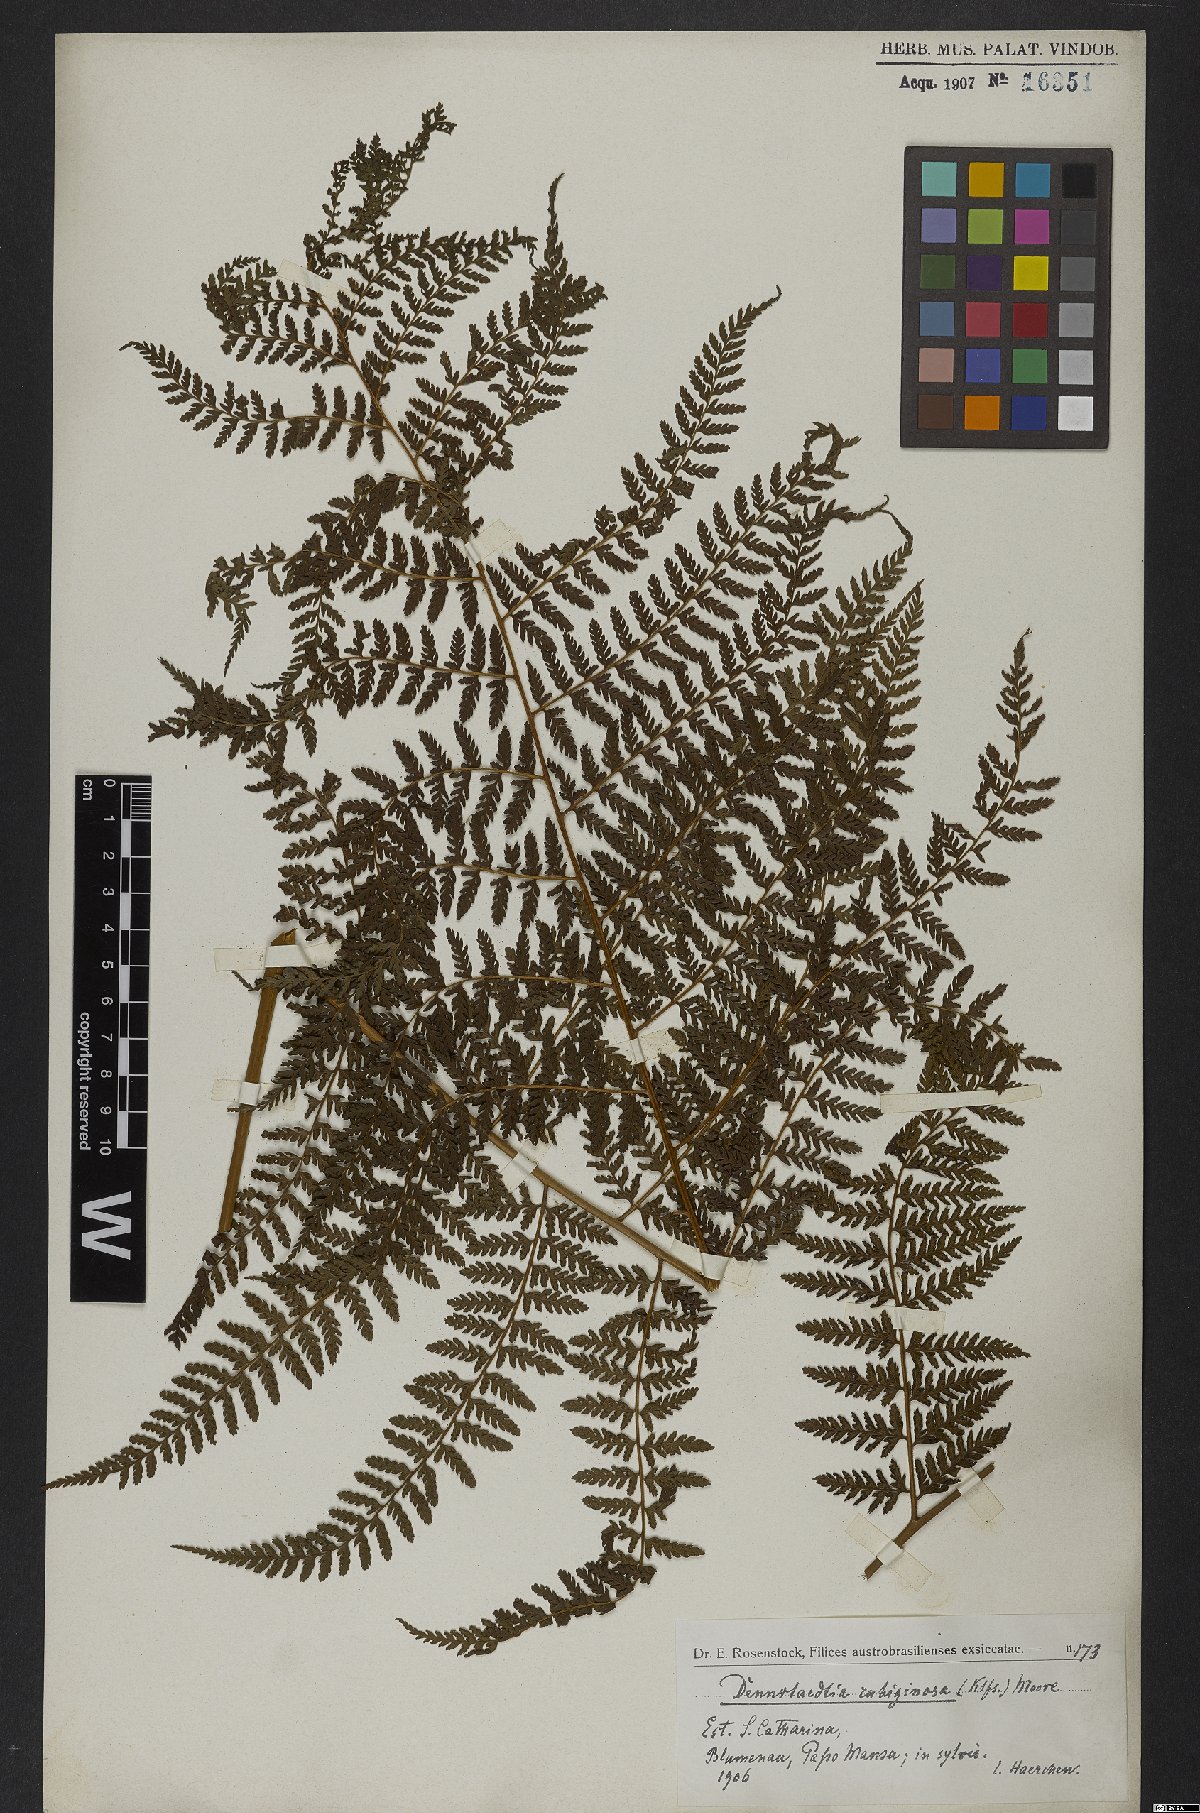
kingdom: Plantae
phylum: Tracheophyta
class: Polypodiopsida
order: Polypodiales
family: Dennstaedtiaceae
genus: Dennstaedtia
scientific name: Dennstaedtia cicutaria
